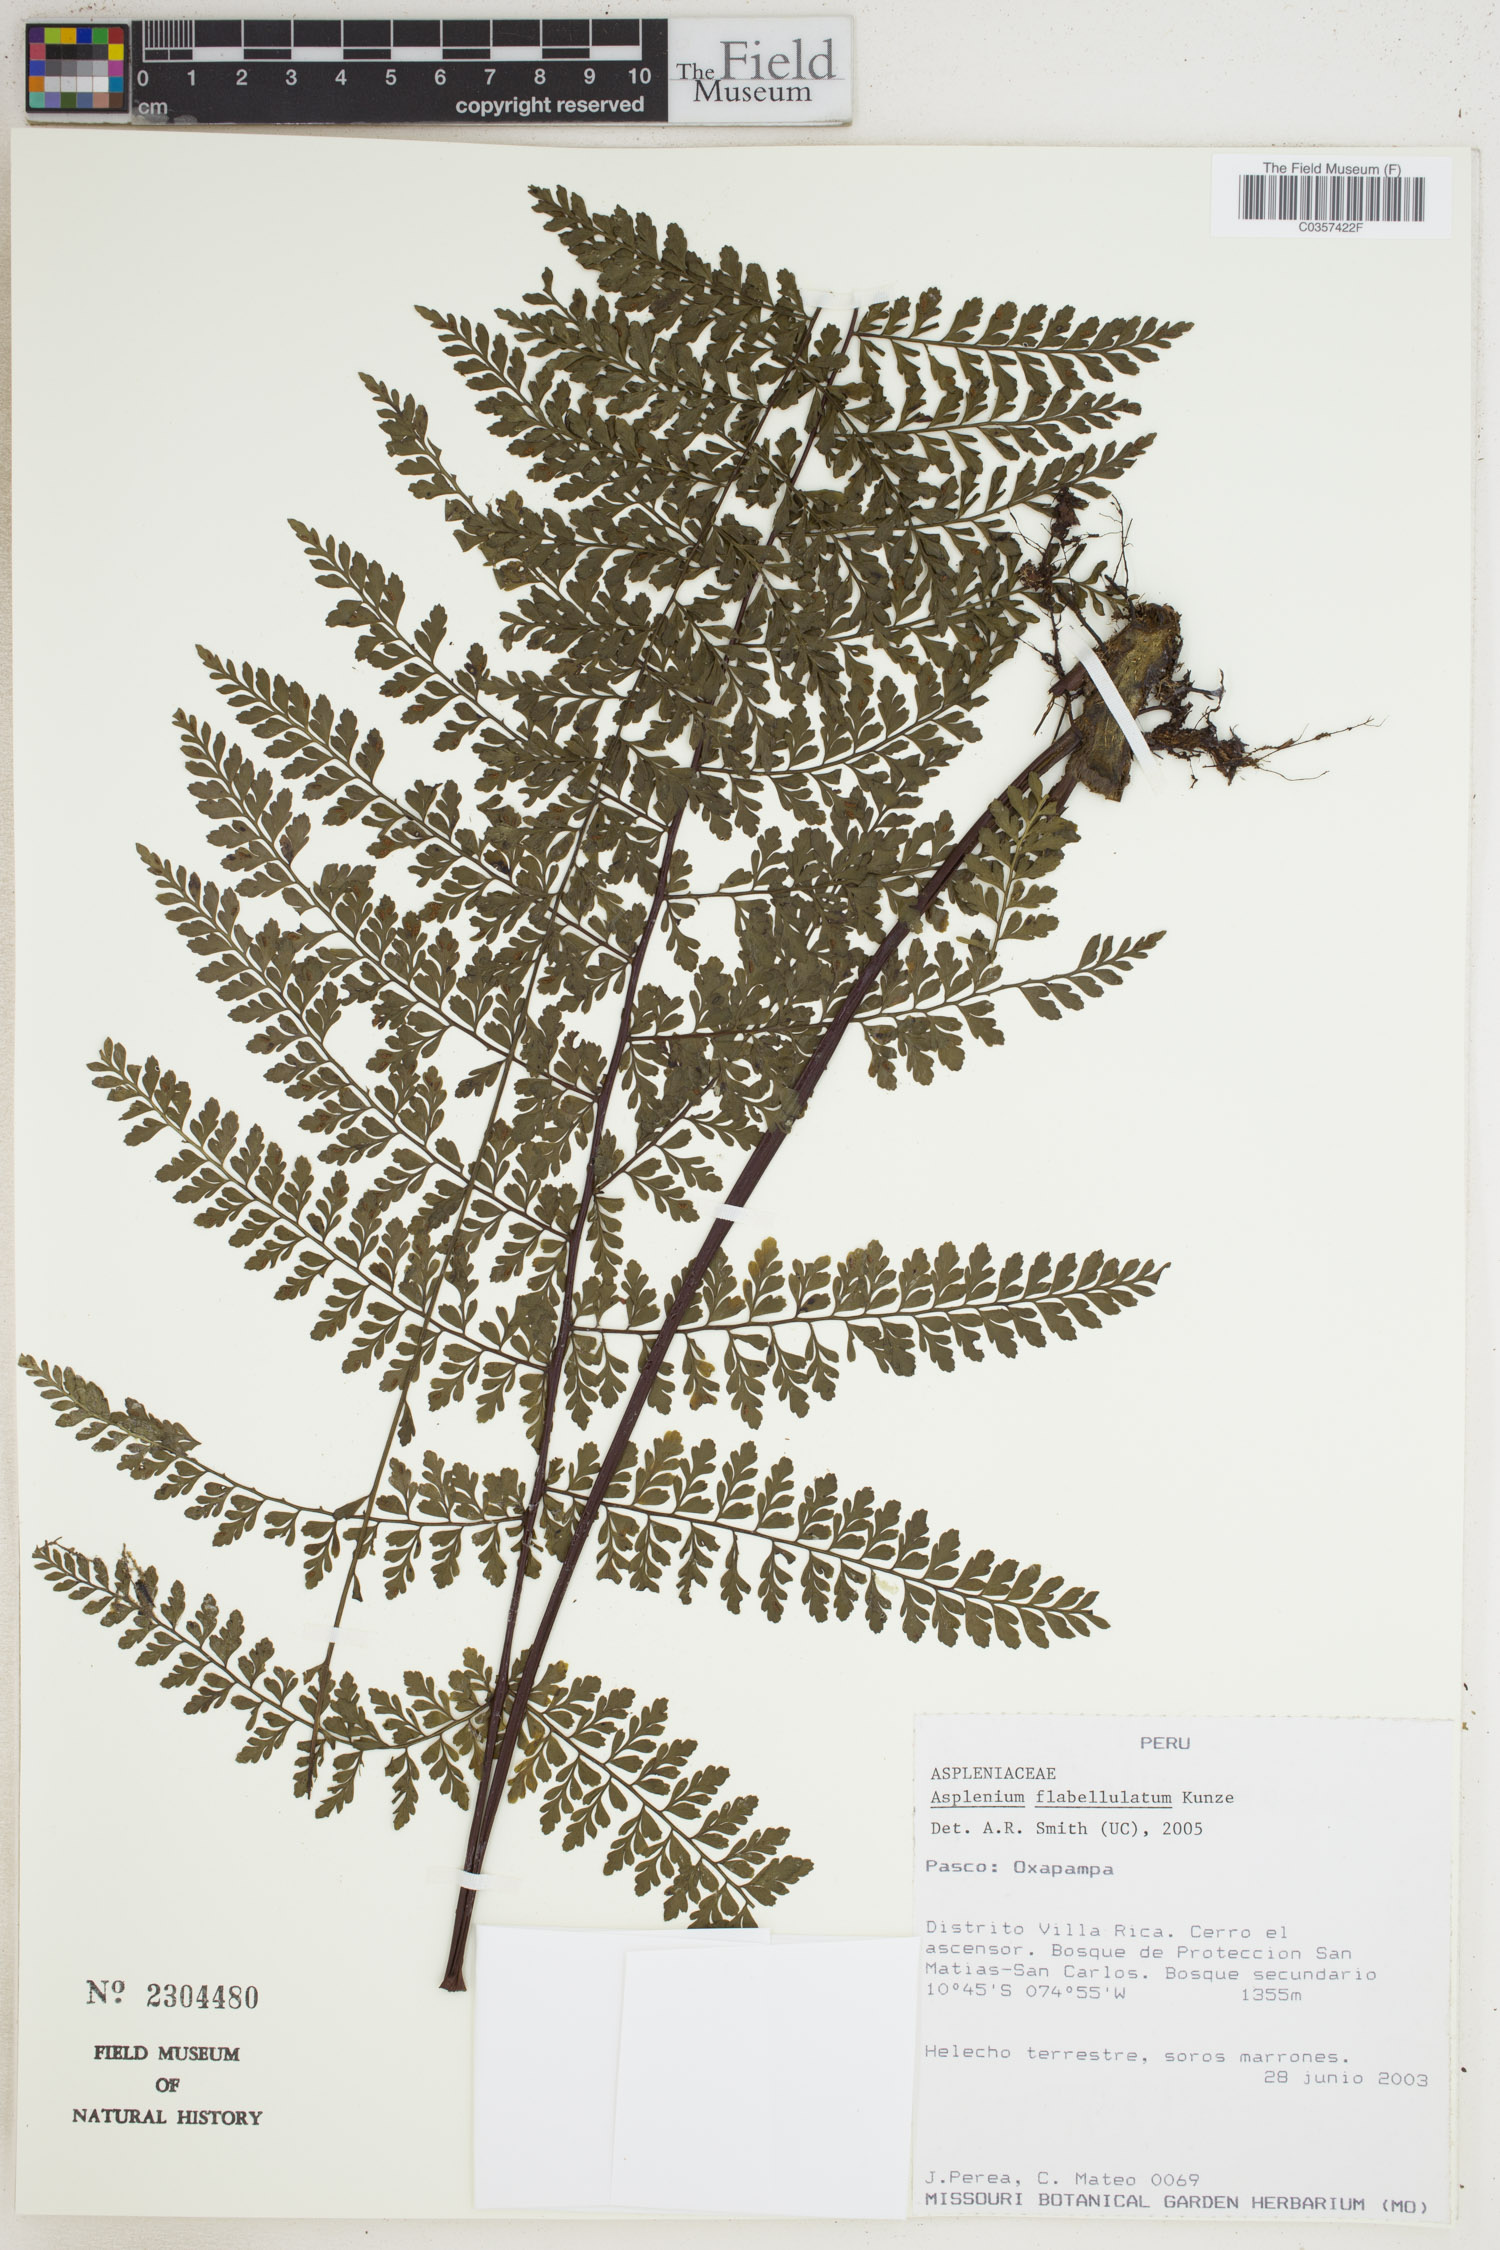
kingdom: Plantae
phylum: Tracheophyta
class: Polypodiopsida
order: Polypodiales
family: Aspleniaceae
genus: Asplenium
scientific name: Asplenium flabellulatum
